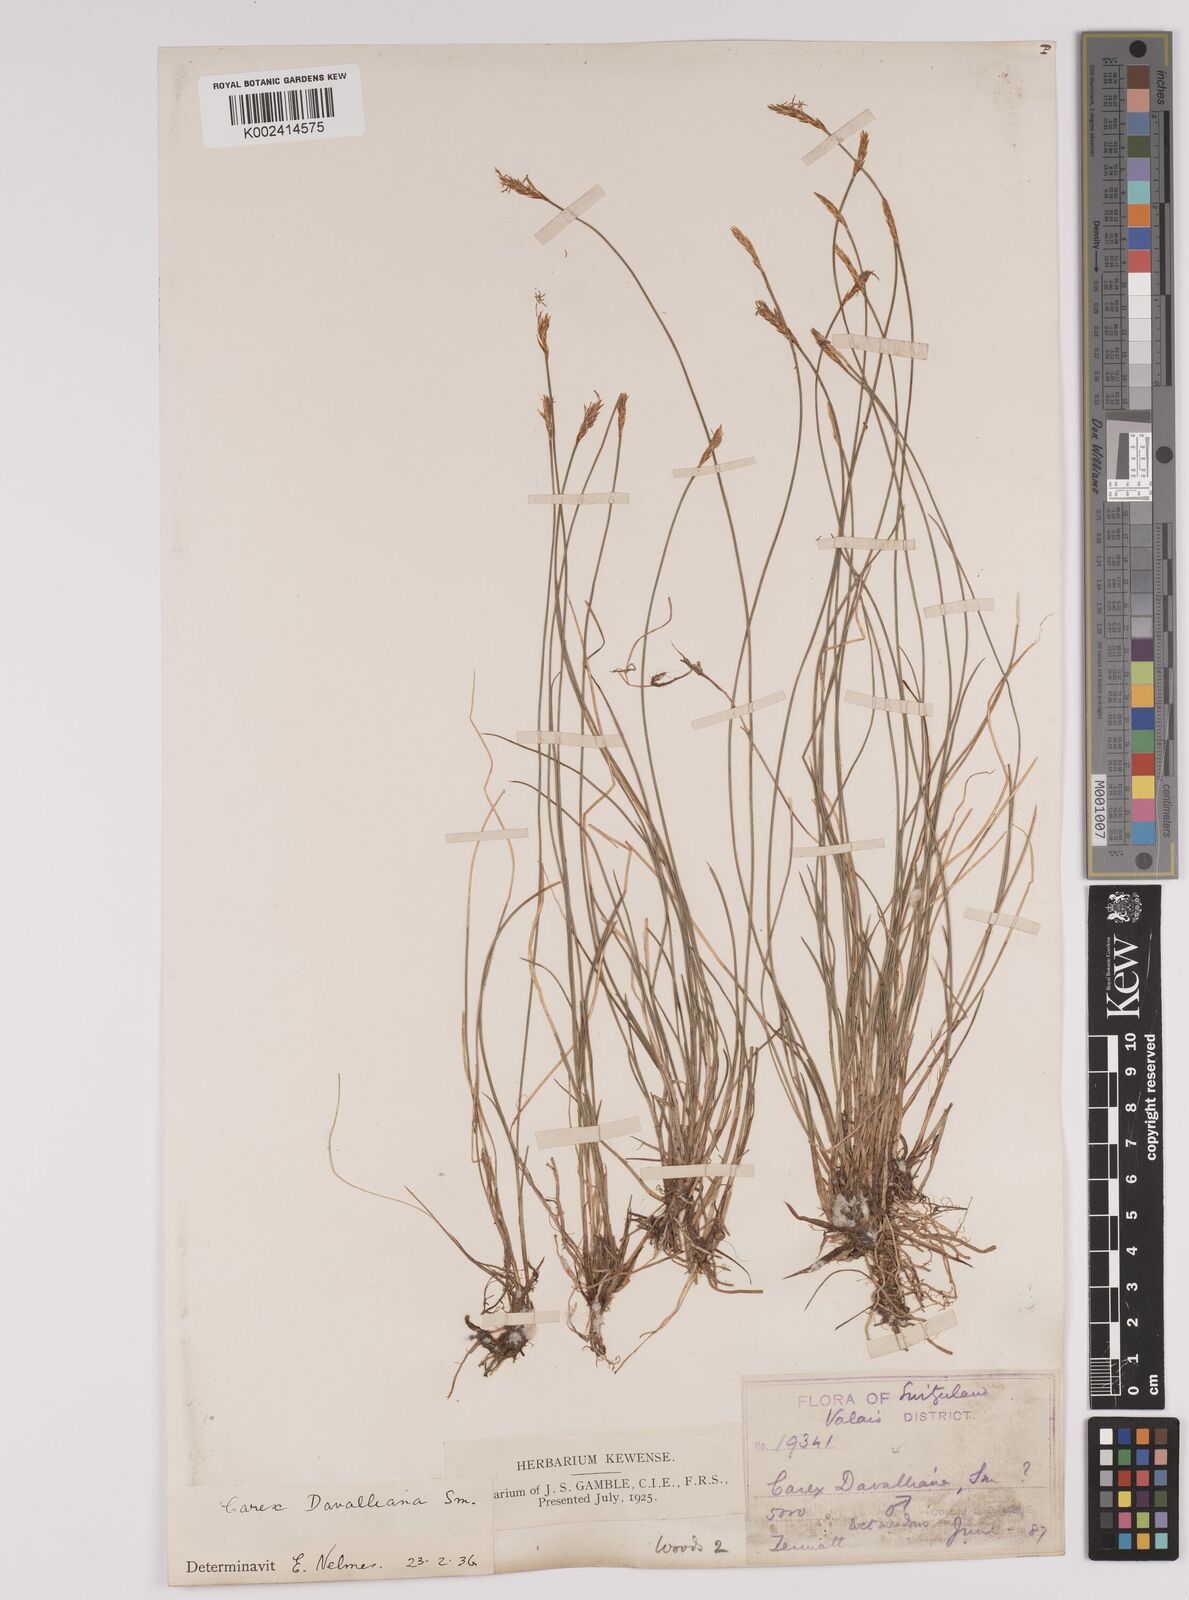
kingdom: Plantae
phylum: Tracheophyta
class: Liliopsida
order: Poales
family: Cyperaceae
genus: Carex
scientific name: Carex davalliana
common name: Davall's sedge
